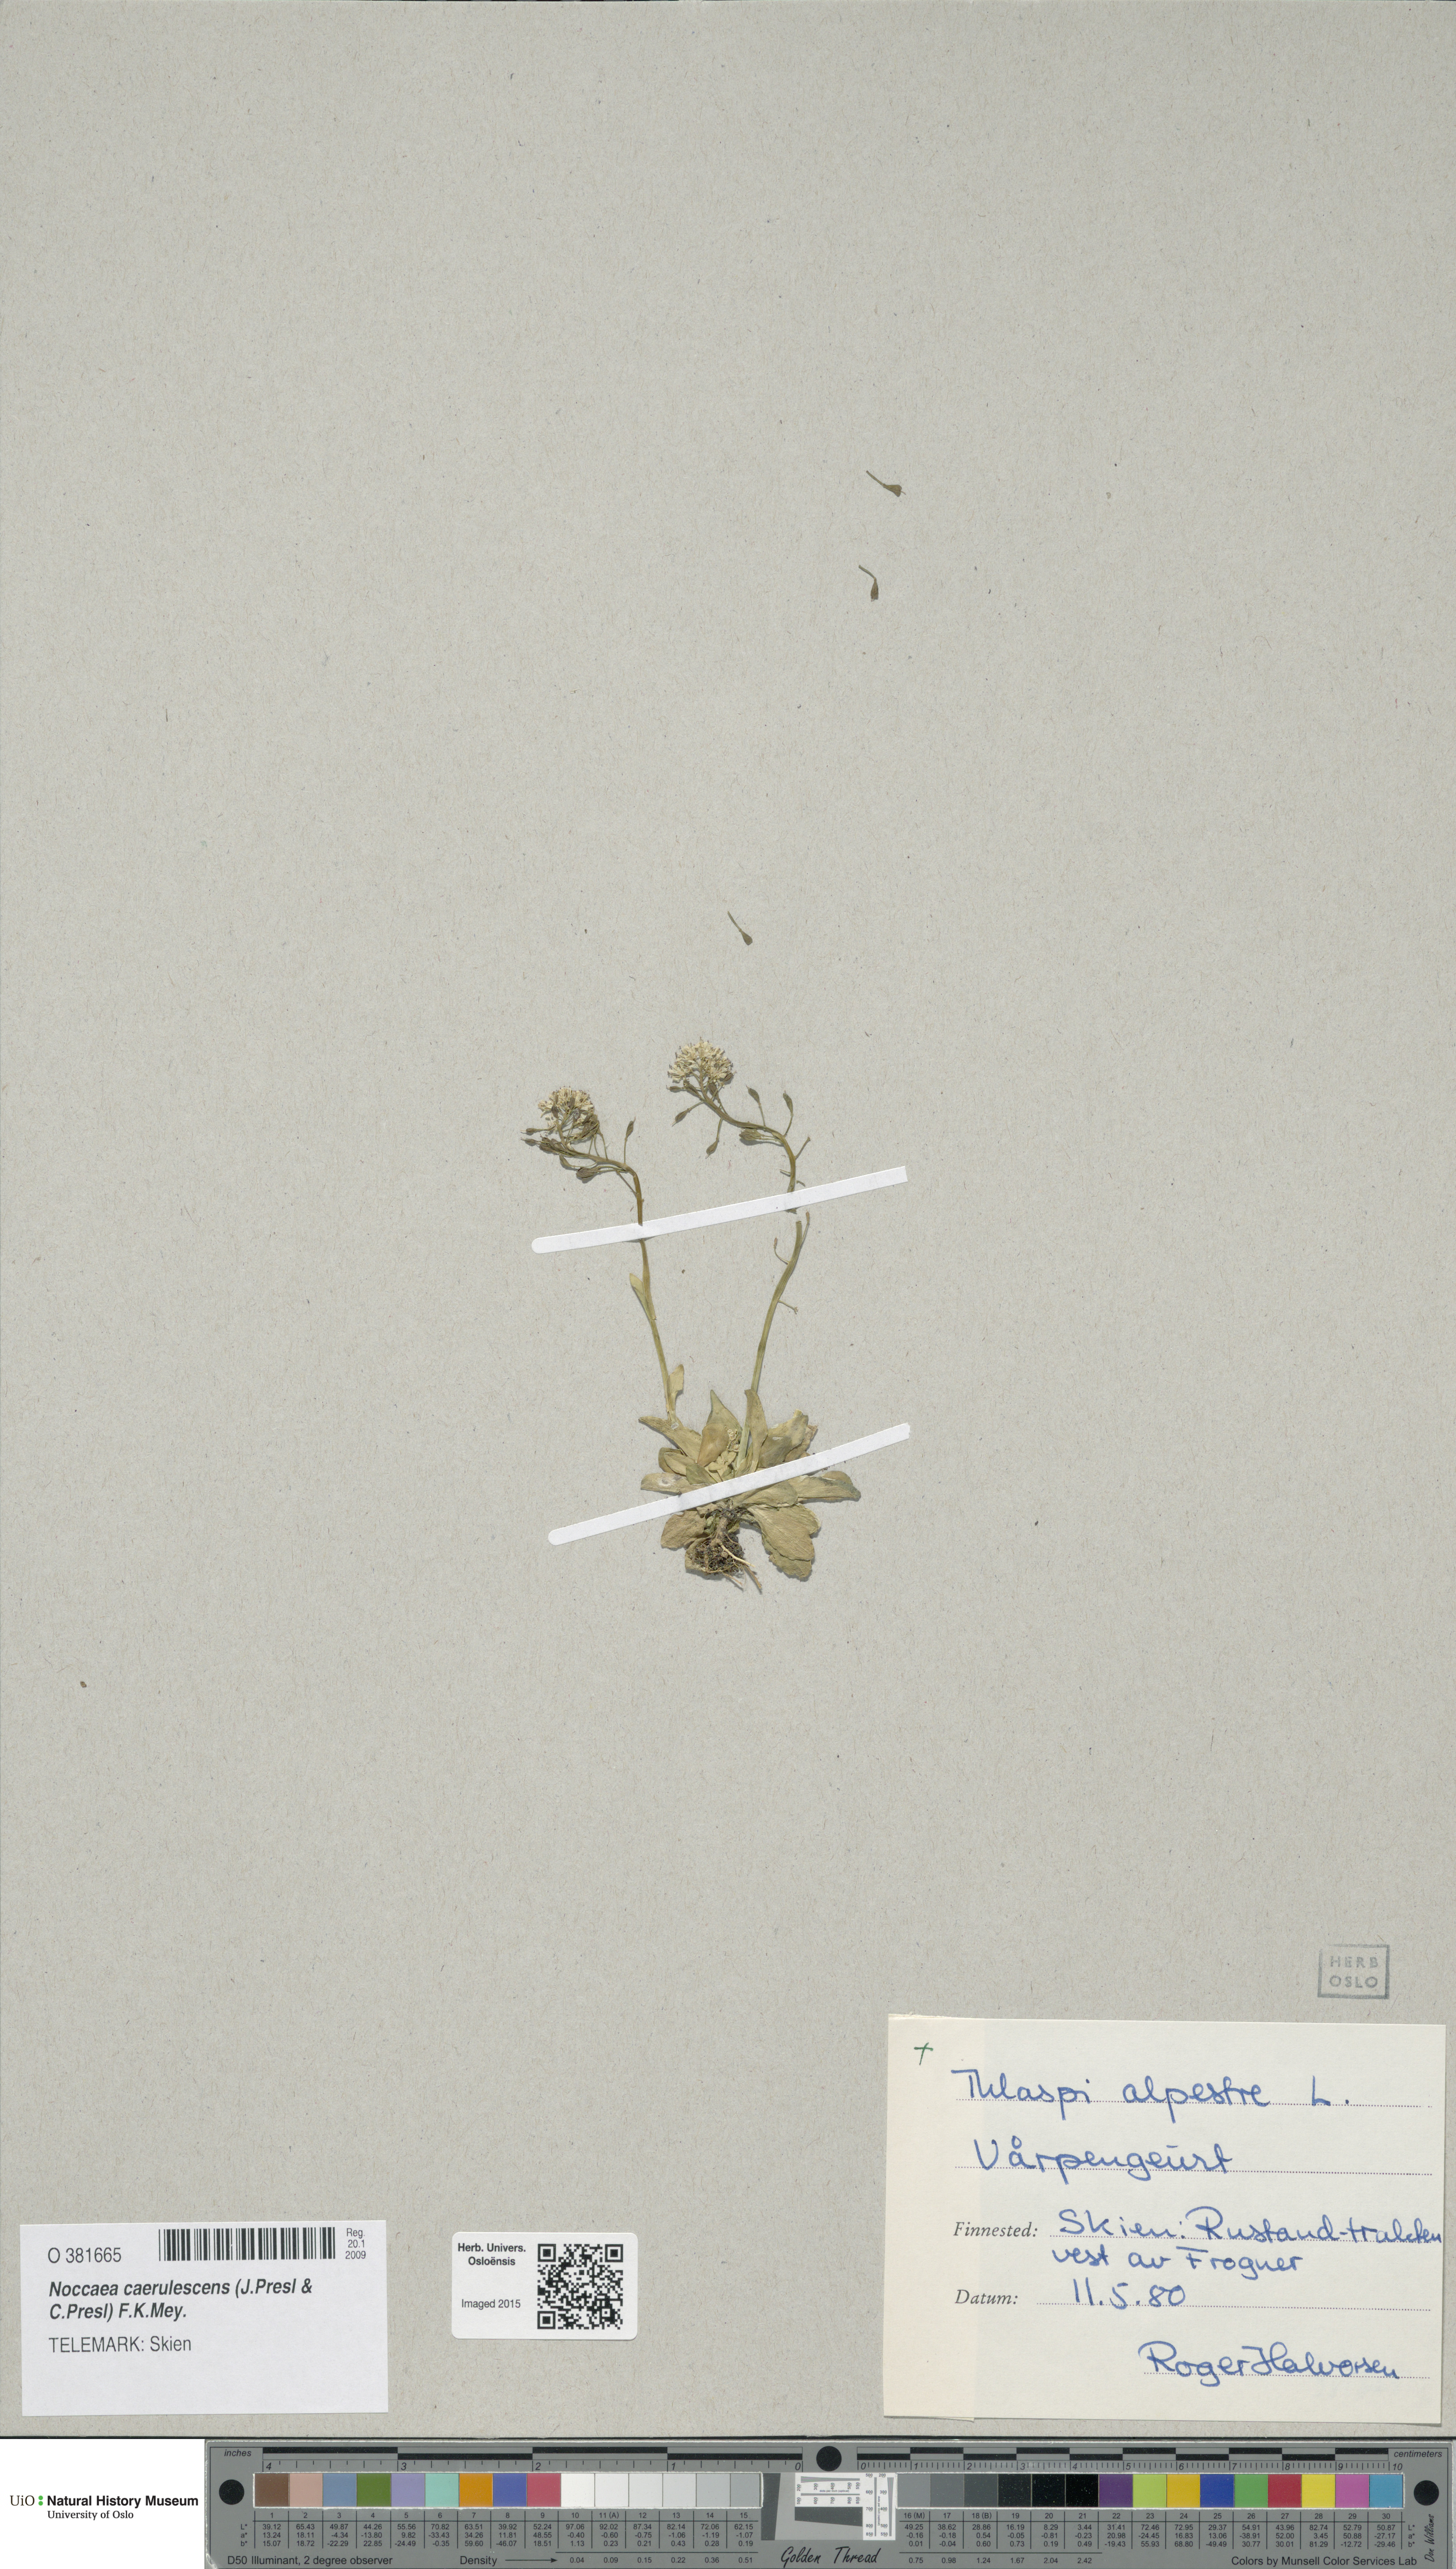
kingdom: Plantae
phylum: Tracheophyta
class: Magnoliopsida
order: Brassicales
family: Brassicaceae
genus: Noccaea
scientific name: Noccaea caerulescens
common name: Alpine pennycress
